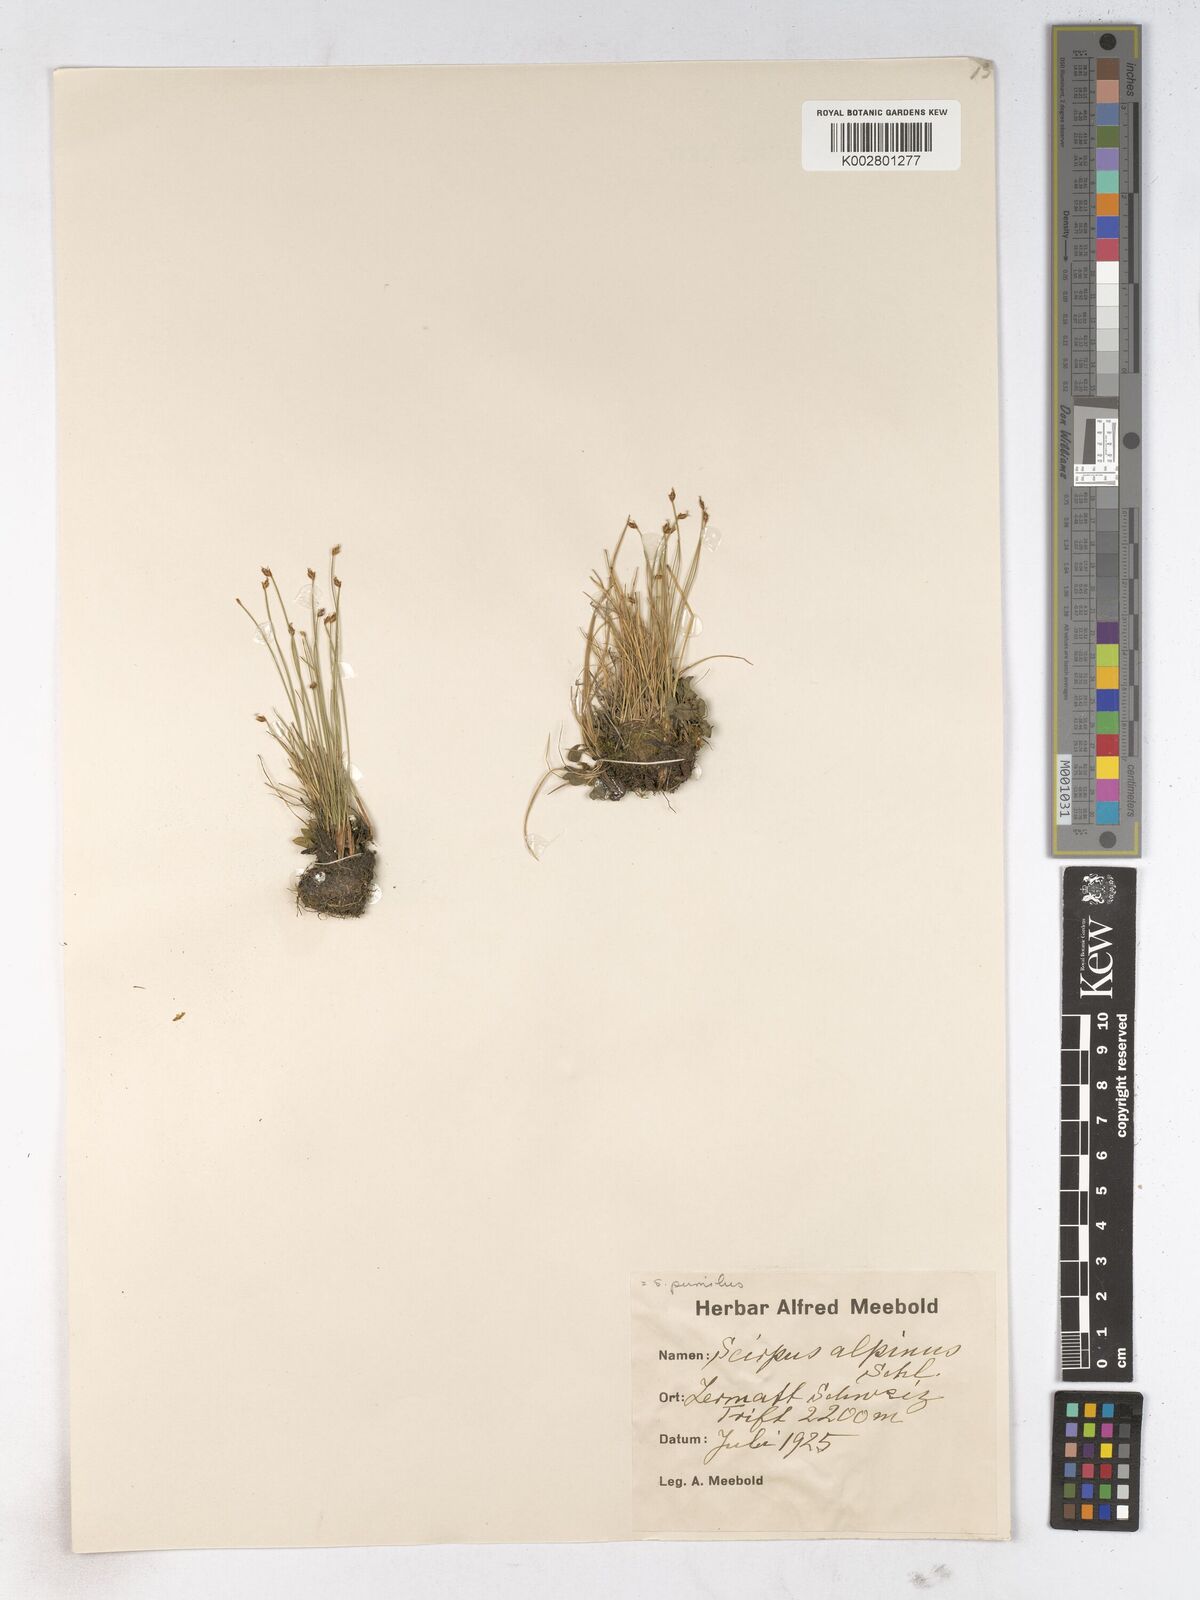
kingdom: Plantae
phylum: Tracheophyta
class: Liliopsida
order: Poales
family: Cyperaceae
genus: Trichophorum
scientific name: Trichophorum pumilum
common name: Rolland's bulrush
